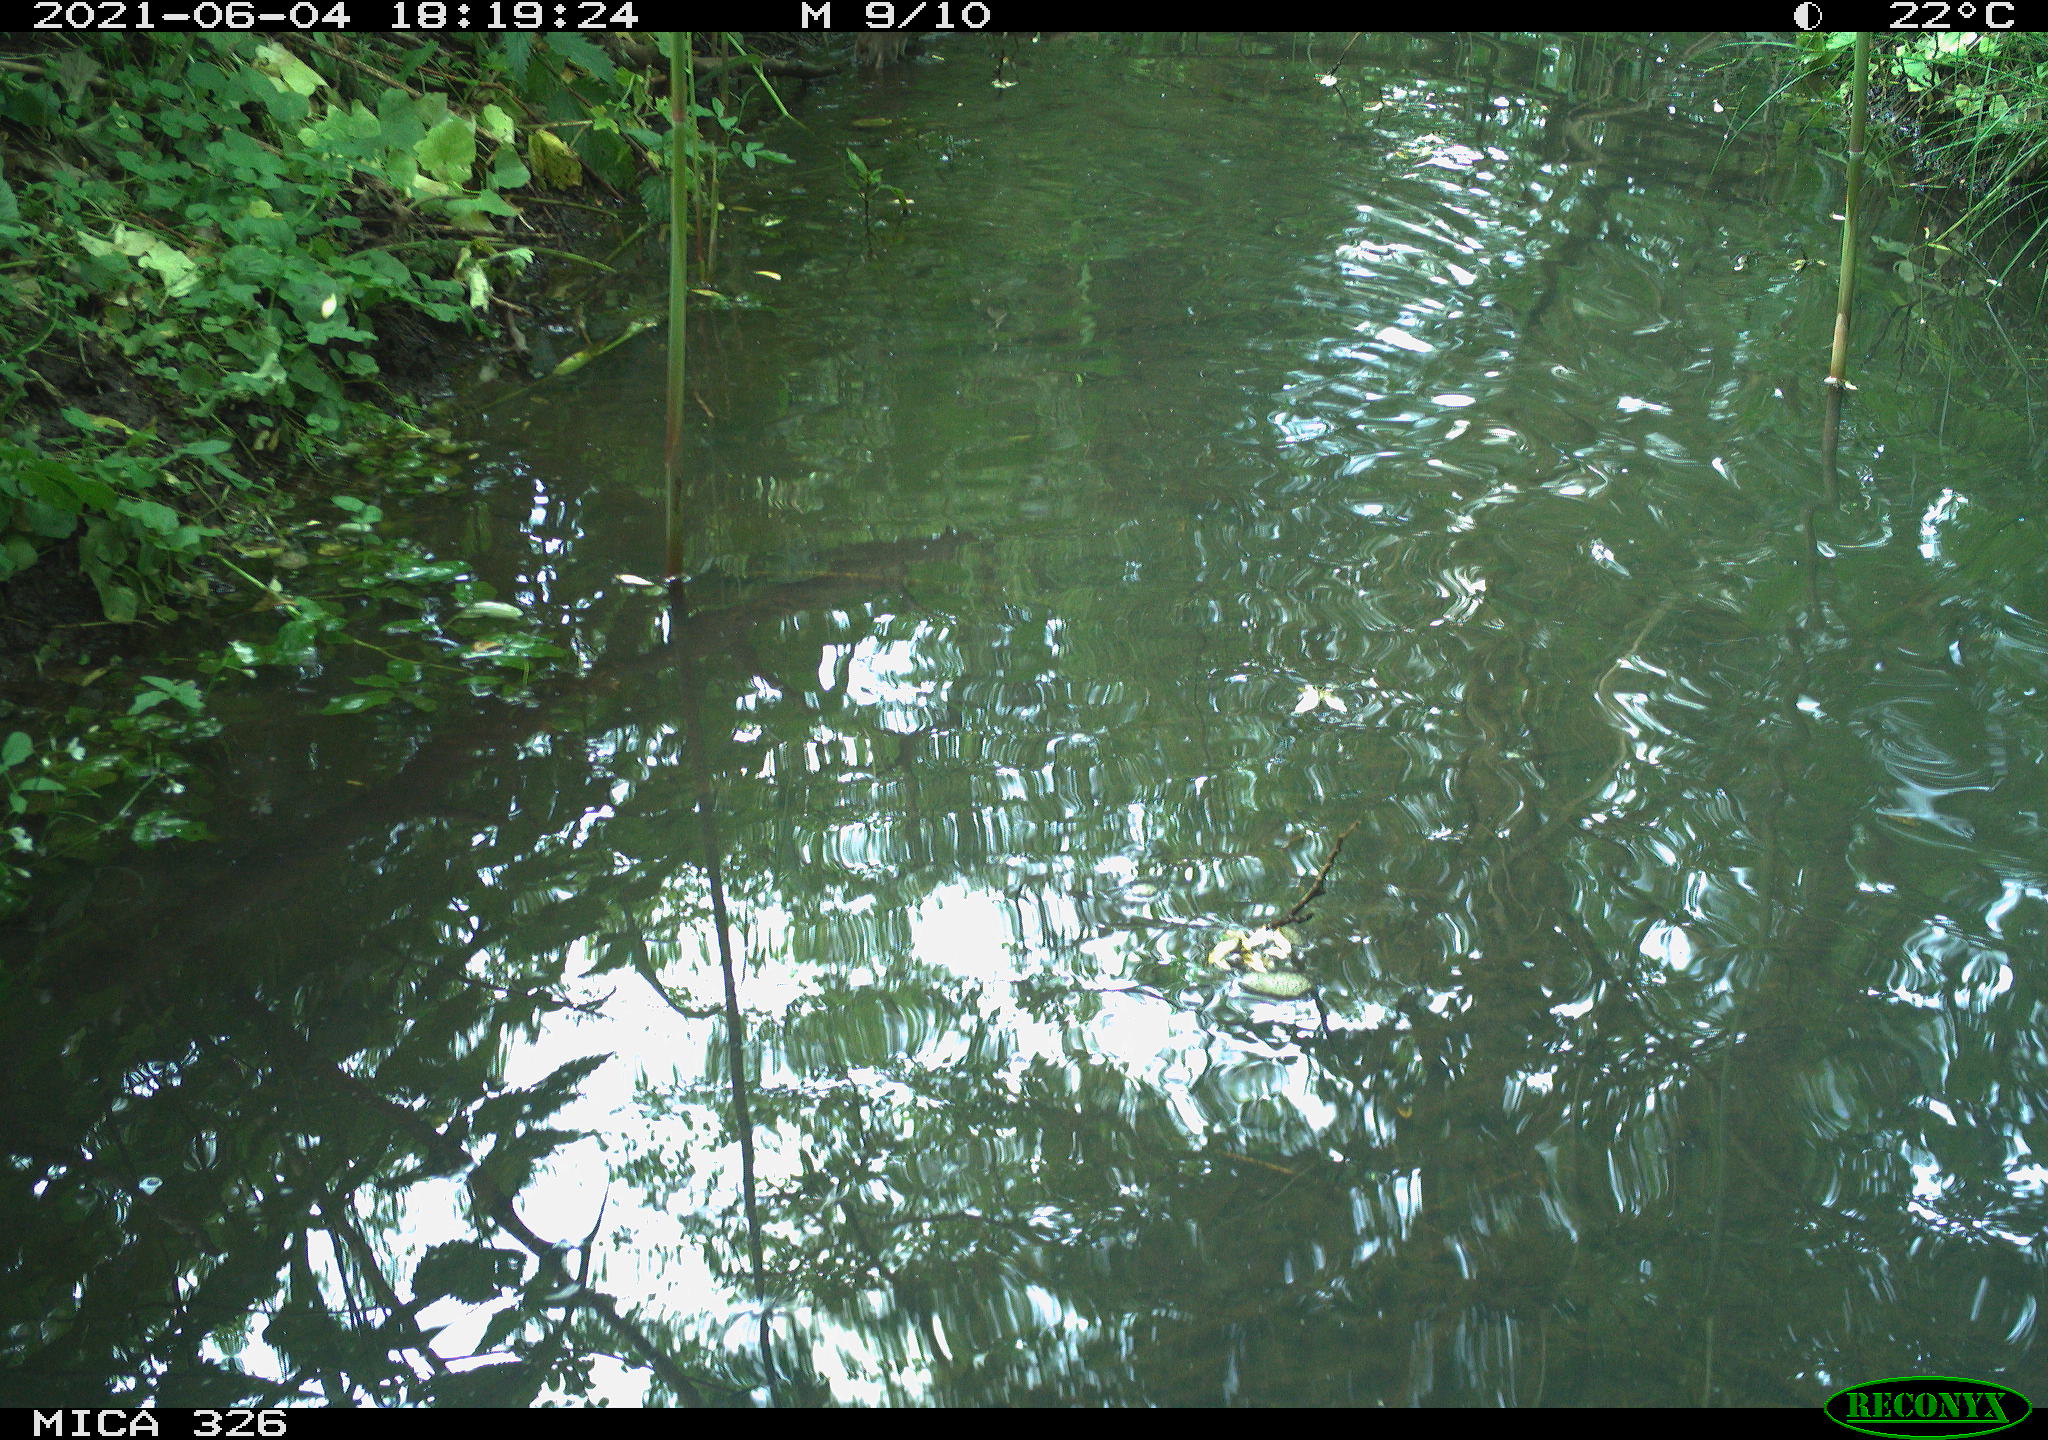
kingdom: Animalia
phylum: Chordata
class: Mammalia
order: Rodentia
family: Muridae
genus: Rattus
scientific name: Rattus norvegicus
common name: Brown rat
